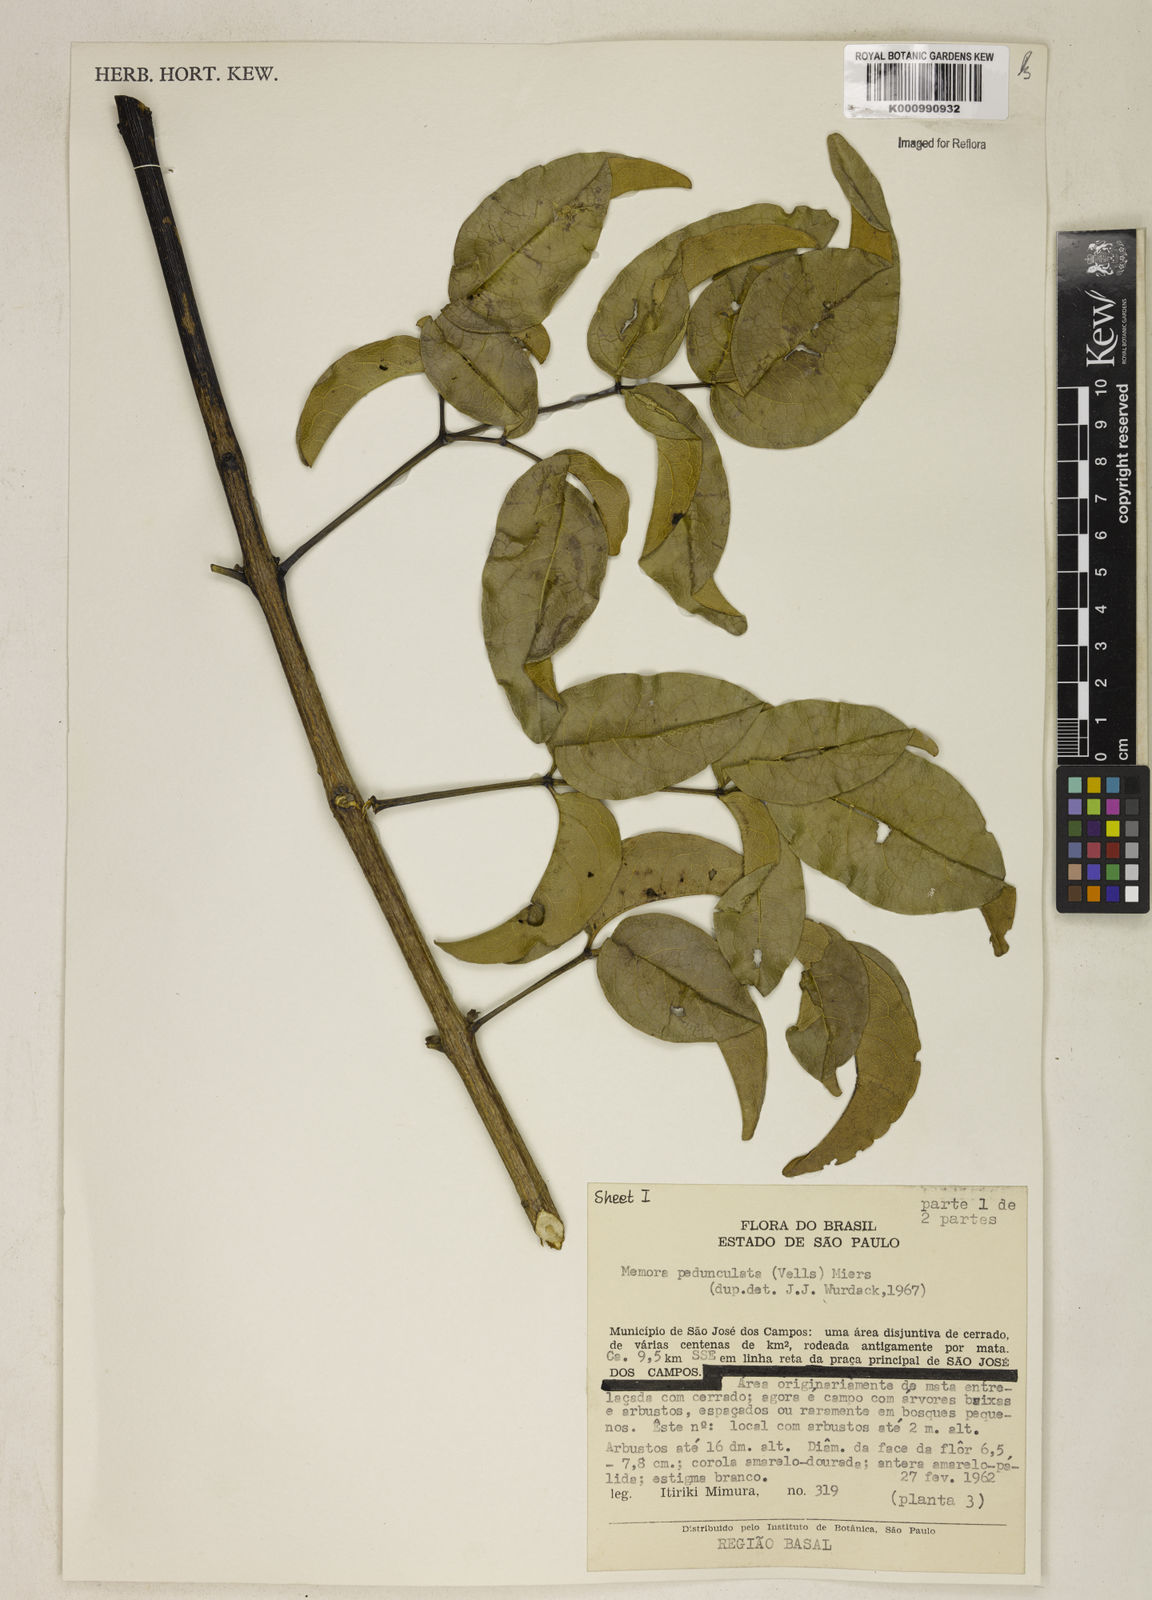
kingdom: Plantae
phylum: Tracheophyta
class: Magnoliopsida
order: Lamiales
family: Bignoniaceae
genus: Adenocalymma
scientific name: Adenocalymma pedunculatum
